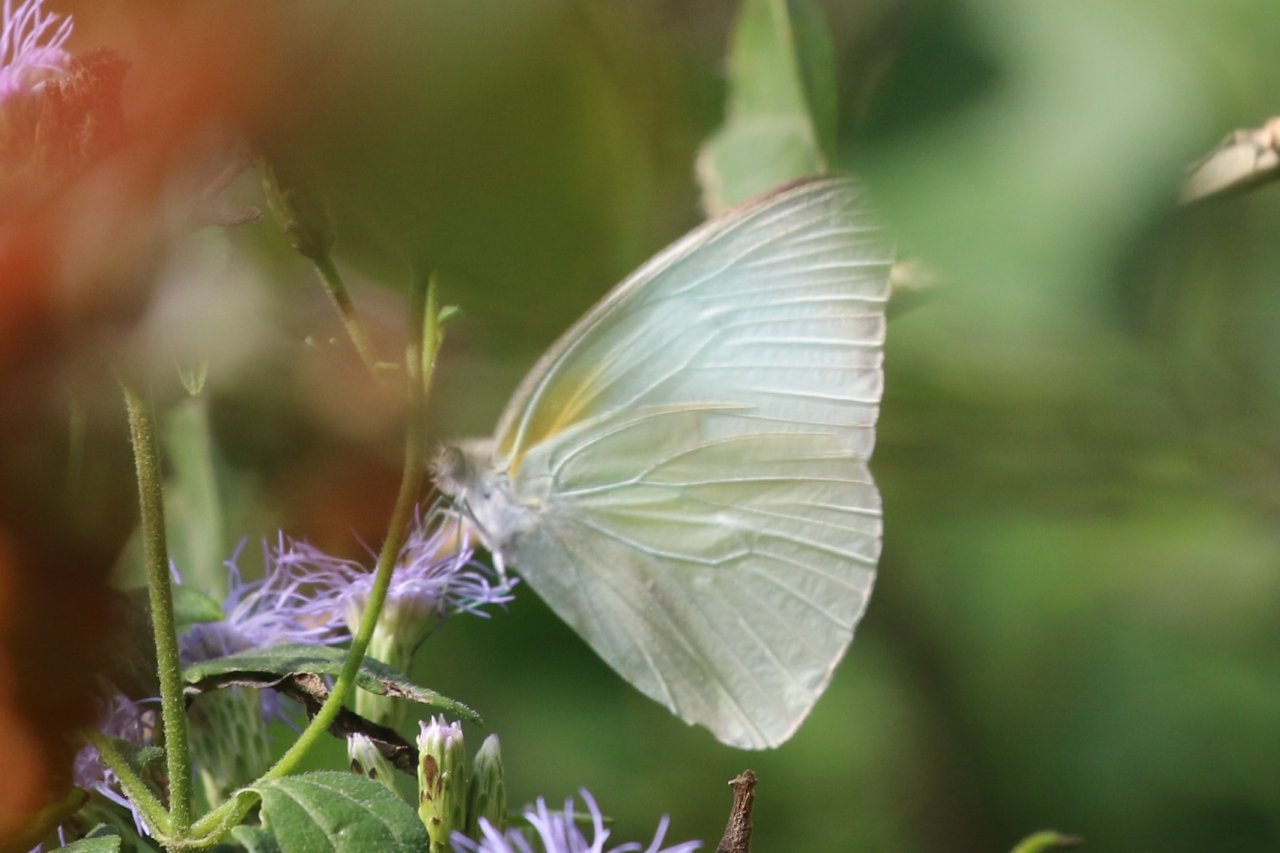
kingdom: Animalia
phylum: Arthropoda
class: Insecta
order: Lepidoptera
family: Pieridae
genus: Glutophrissa
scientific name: Glutophrissa drusilla
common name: Florida White
